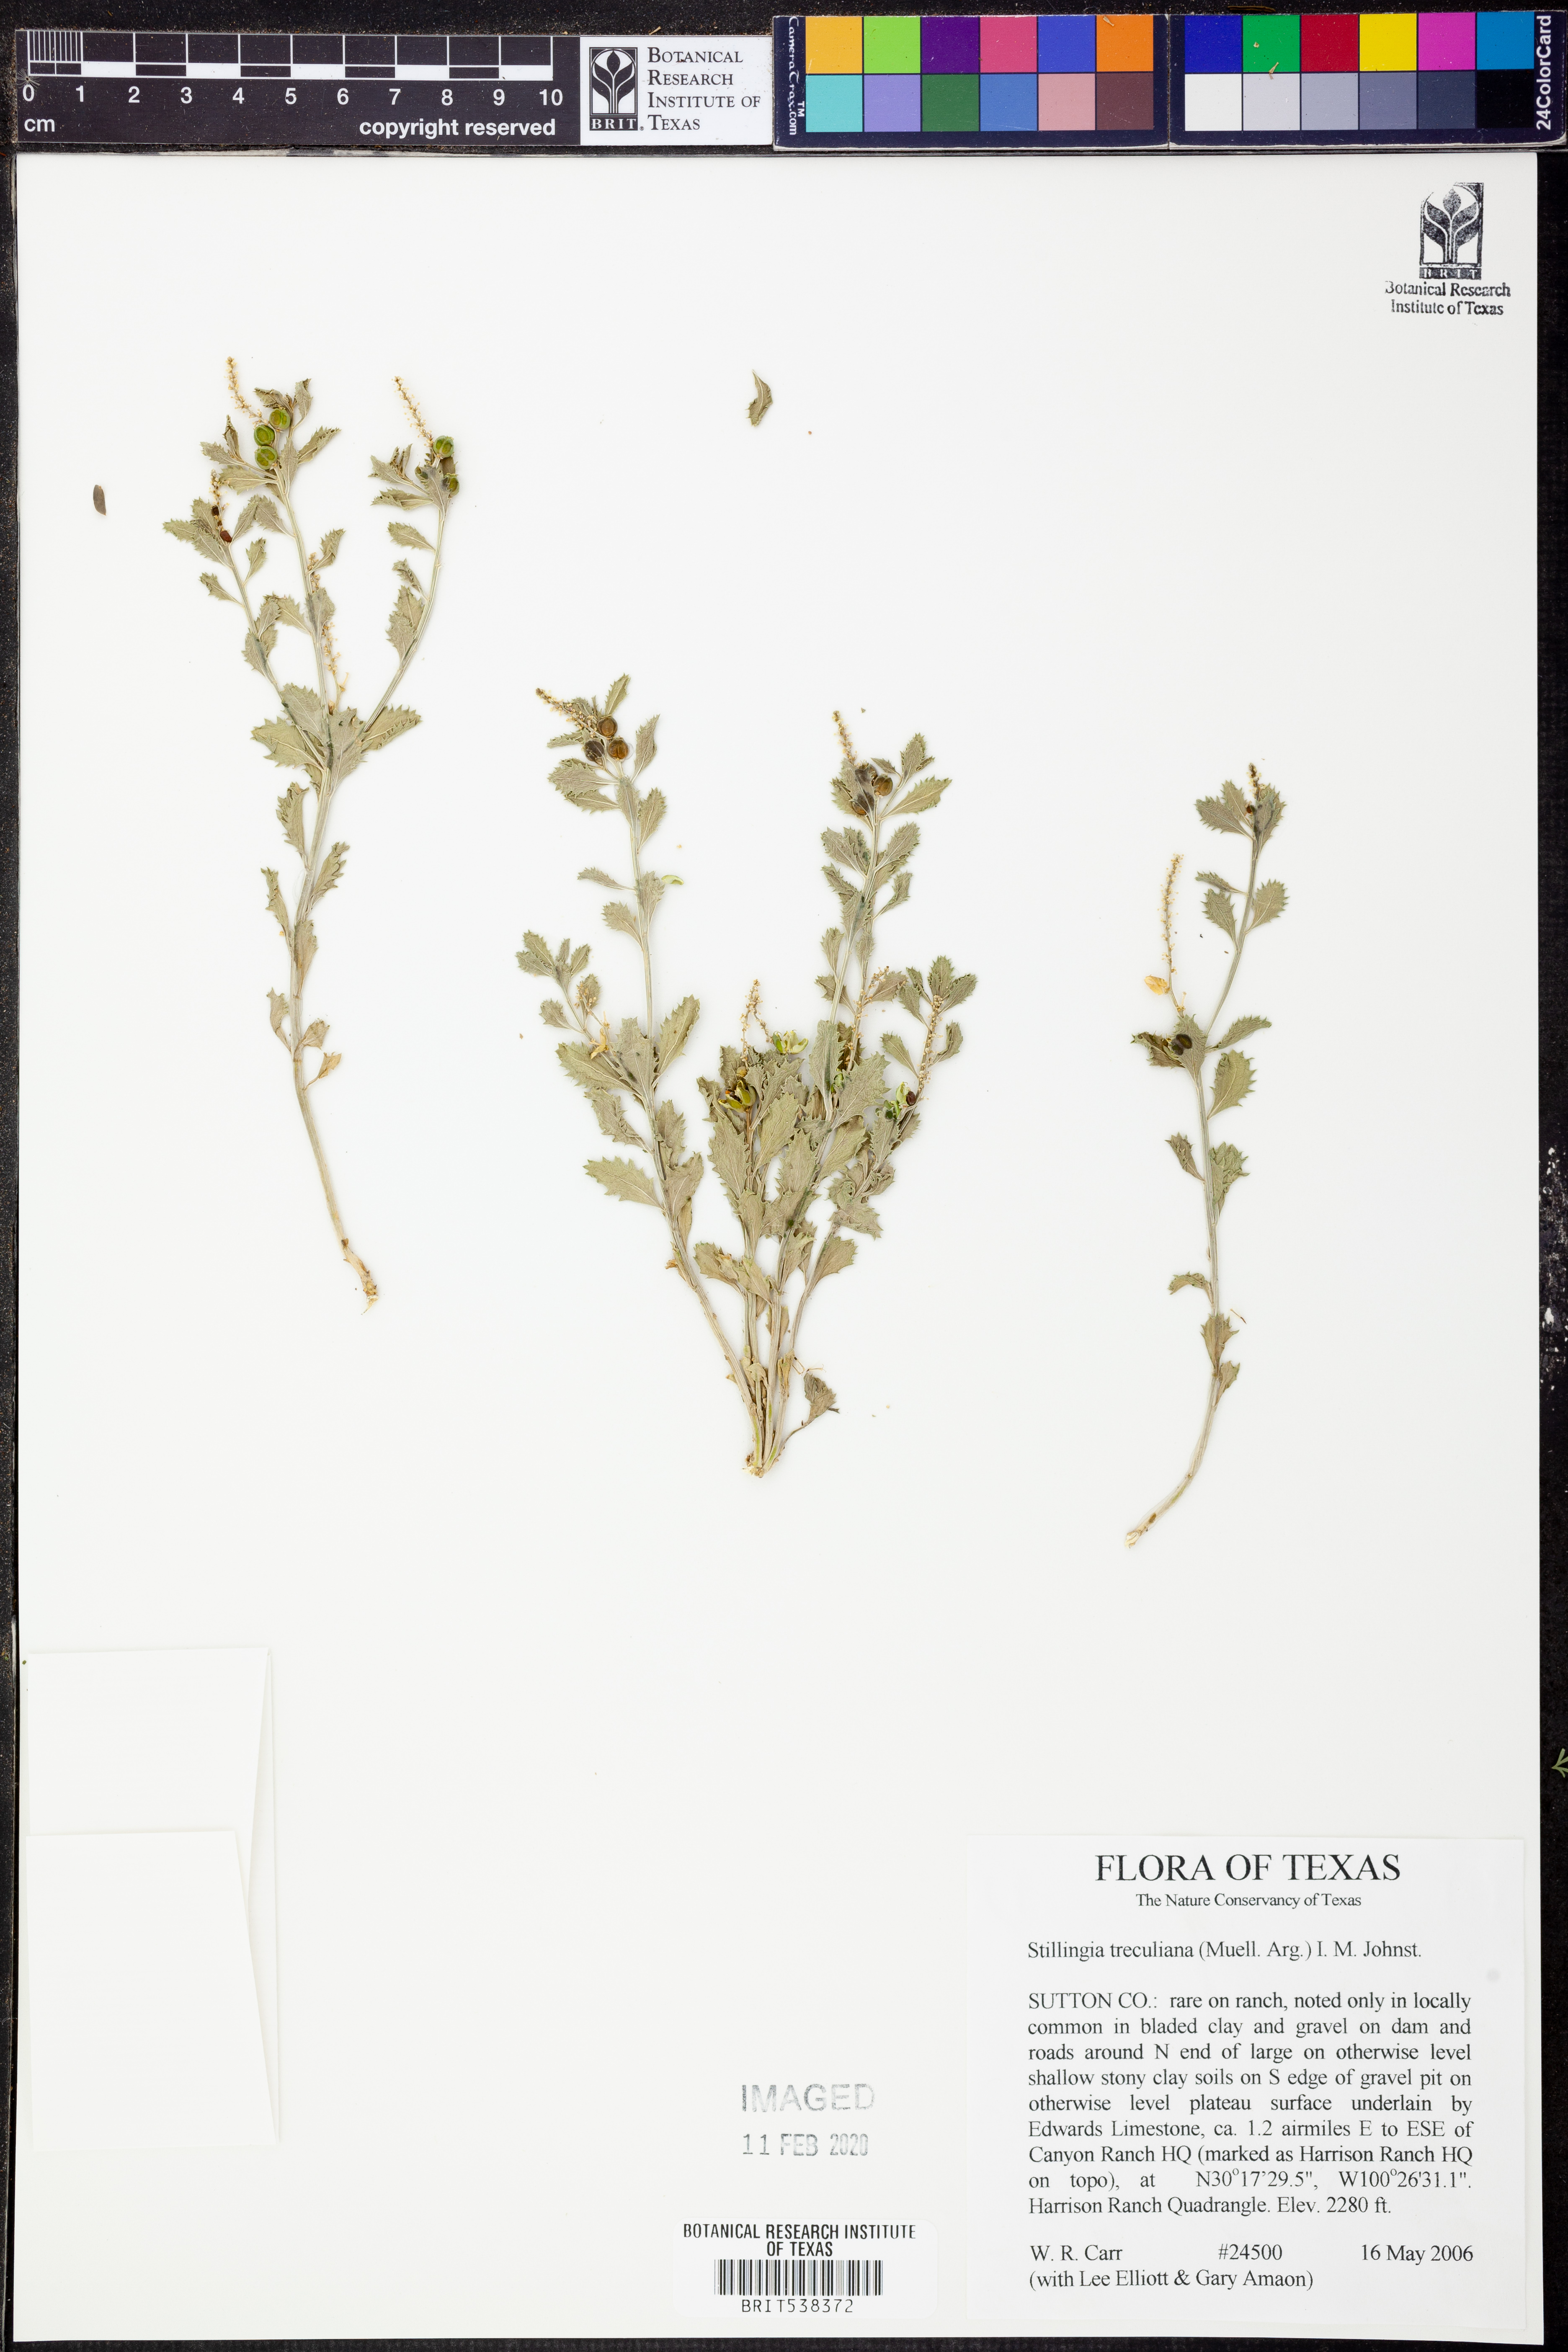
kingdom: Plantae
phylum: Tracheophyta
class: Magnoliopsida
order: Malpighiales
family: Euphorbiaceae
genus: Stillingia
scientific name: Stillingia treculiana
